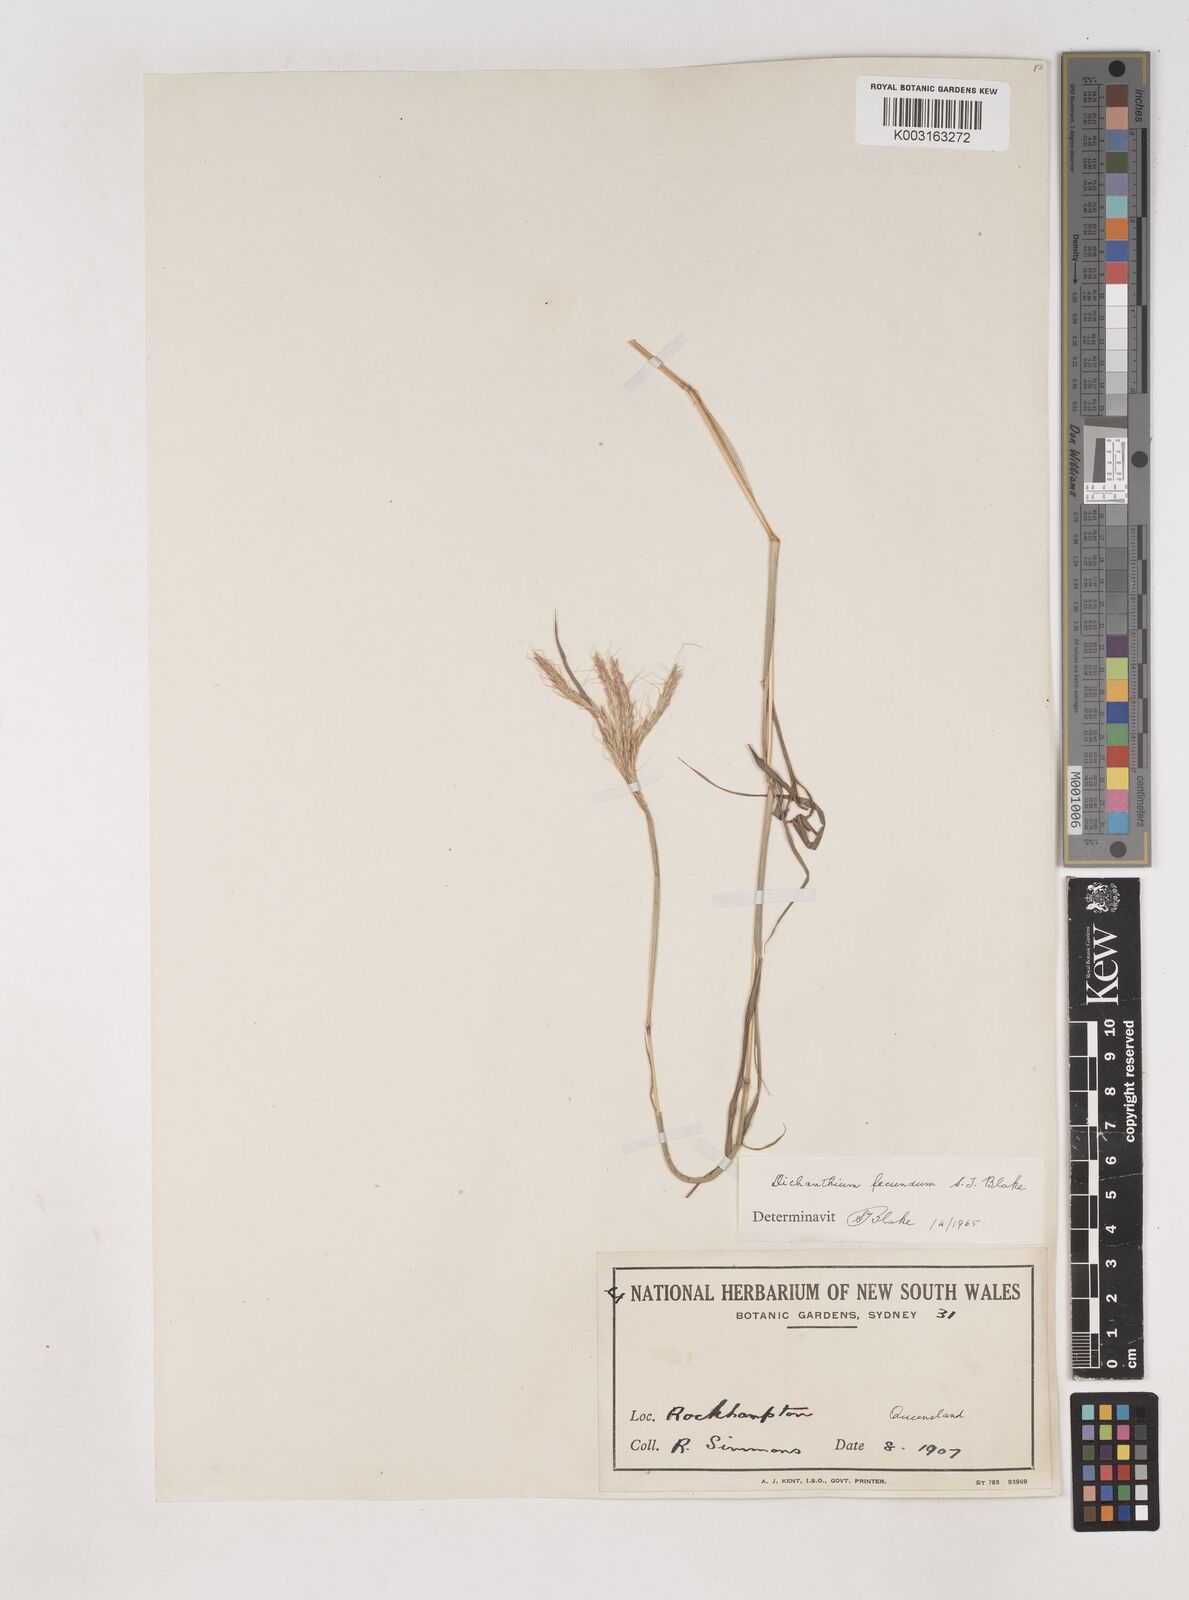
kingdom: Plantae
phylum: Tracheophyta
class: Liliopsida
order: Poales
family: Poaceae
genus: Dichanthium
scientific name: Dichanthium fecundum
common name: Bundle-bundle
